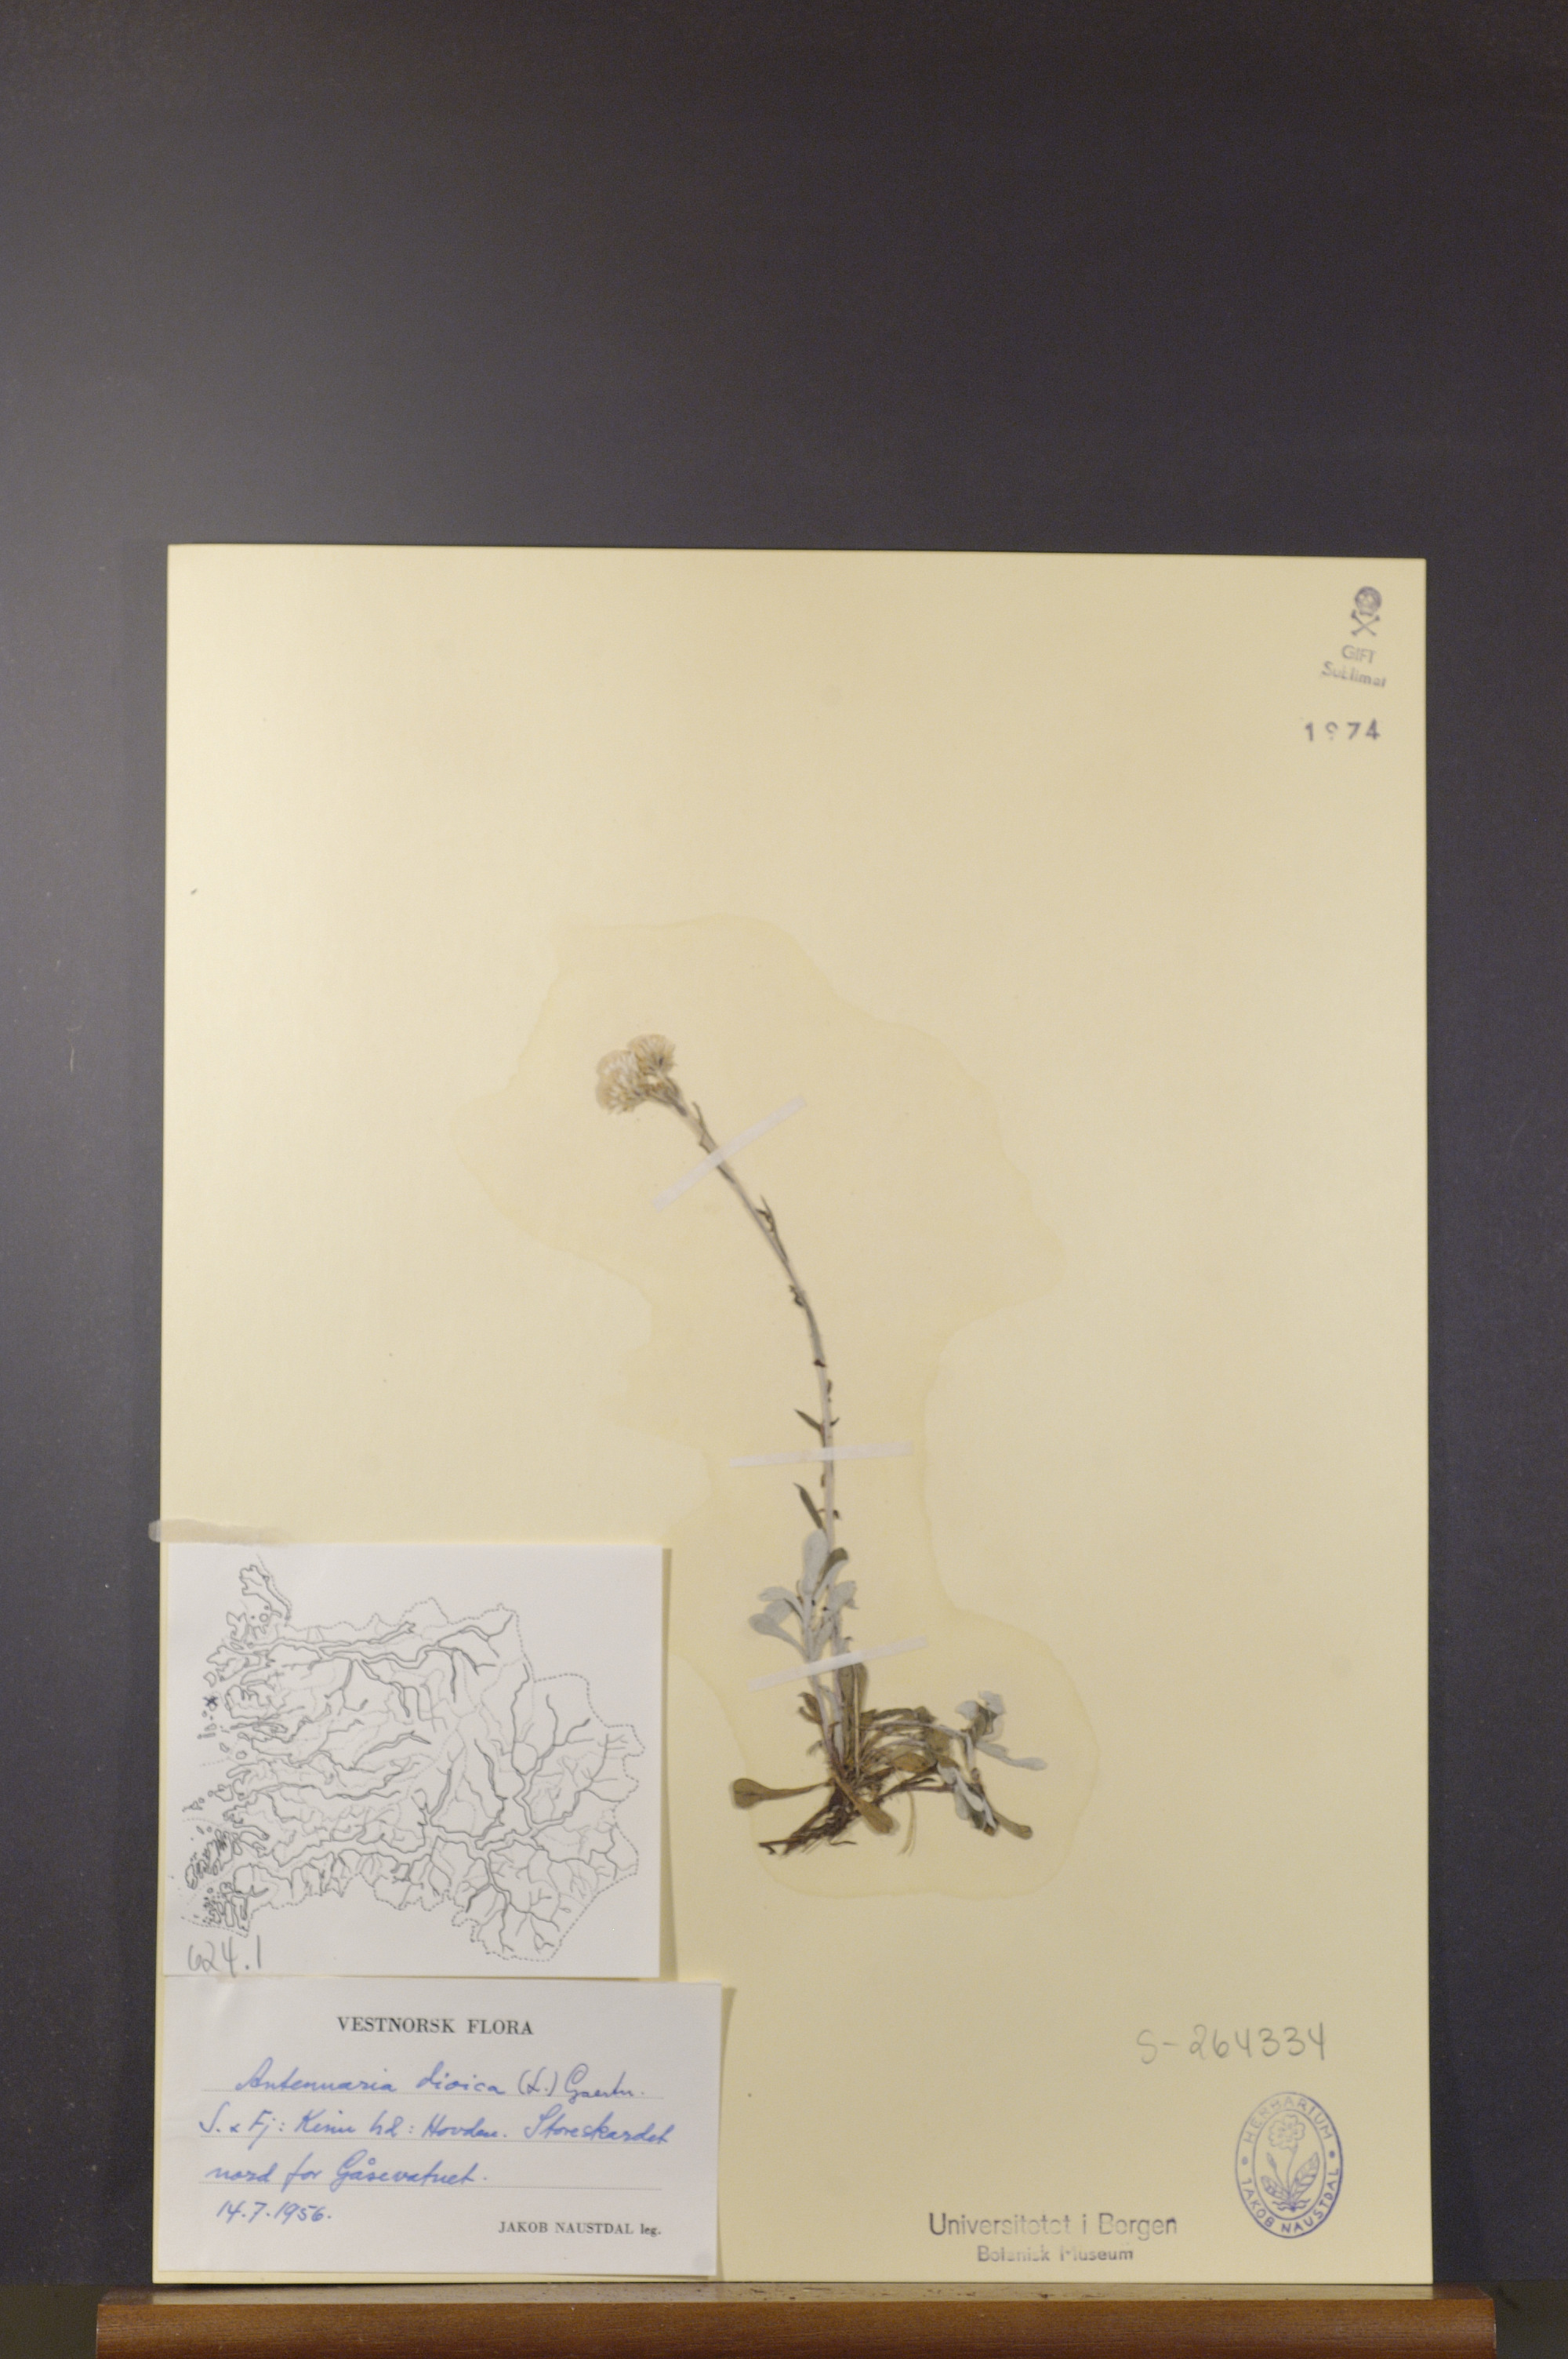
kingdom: Plantae
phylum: Tracheophyta
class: Magnoliopsida
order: Asterales
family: Asteraceae
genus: Antennaria
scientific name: Antennaria dioica
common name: Mountain everlasting
